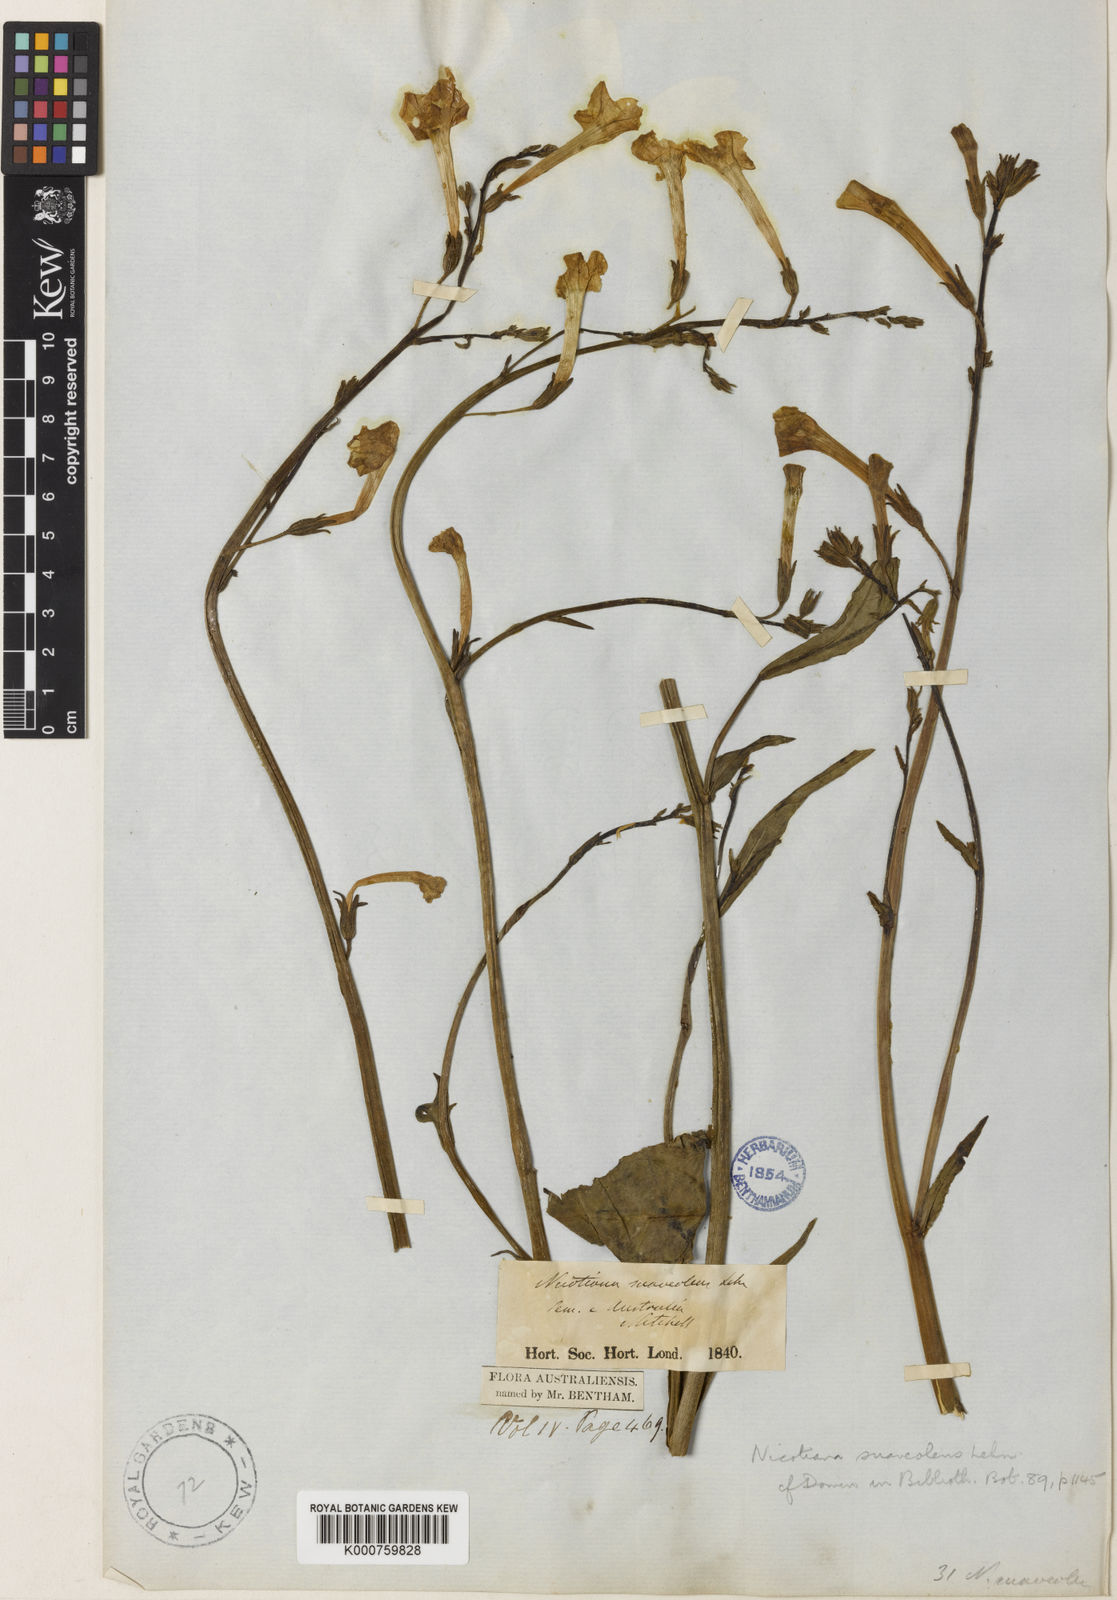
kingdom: Plantae
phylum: Tracheophyta
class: Magnoliopsida
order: Solanales
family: Solanaceae
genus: Nicotiana
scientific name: Nicotiana suaveolens
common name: Australian tobacco
